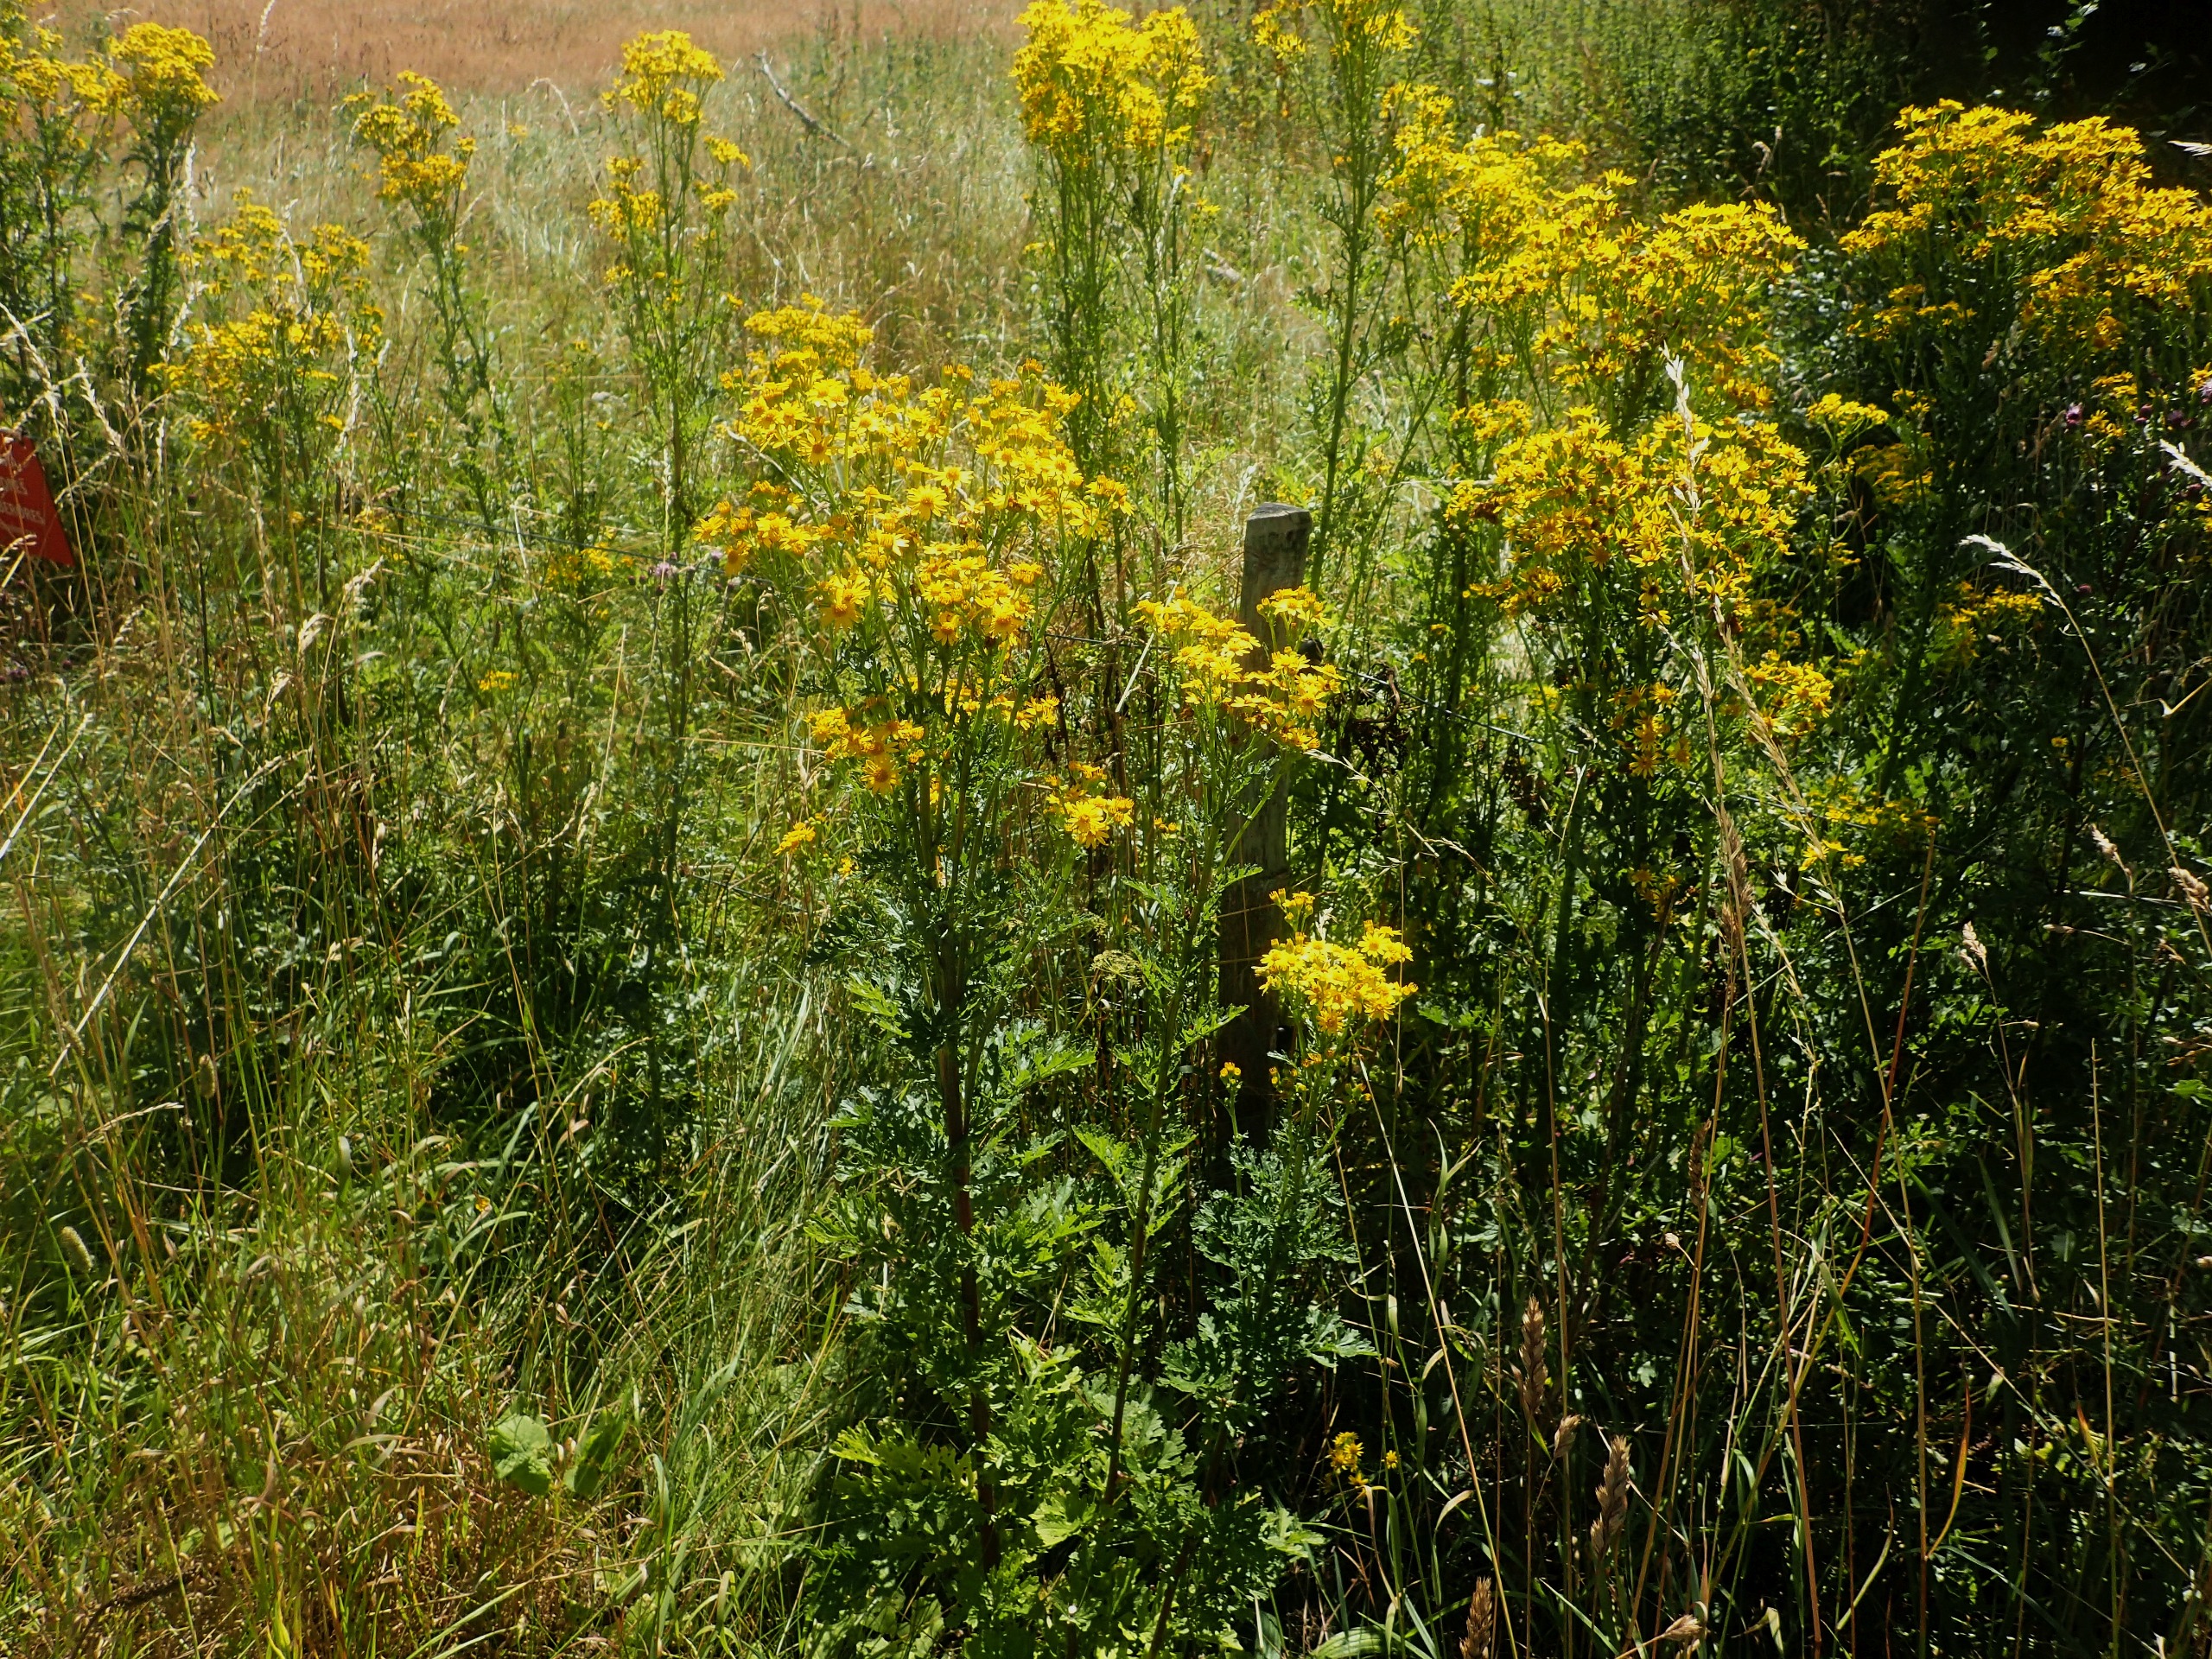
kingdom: Plantae
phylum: Tracheophyta
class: Magnoliopsida
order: Asterales
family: Asteraceae
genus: Jacobaea
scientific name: Jacobaea vulgaris
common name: Eng-brandbæger
